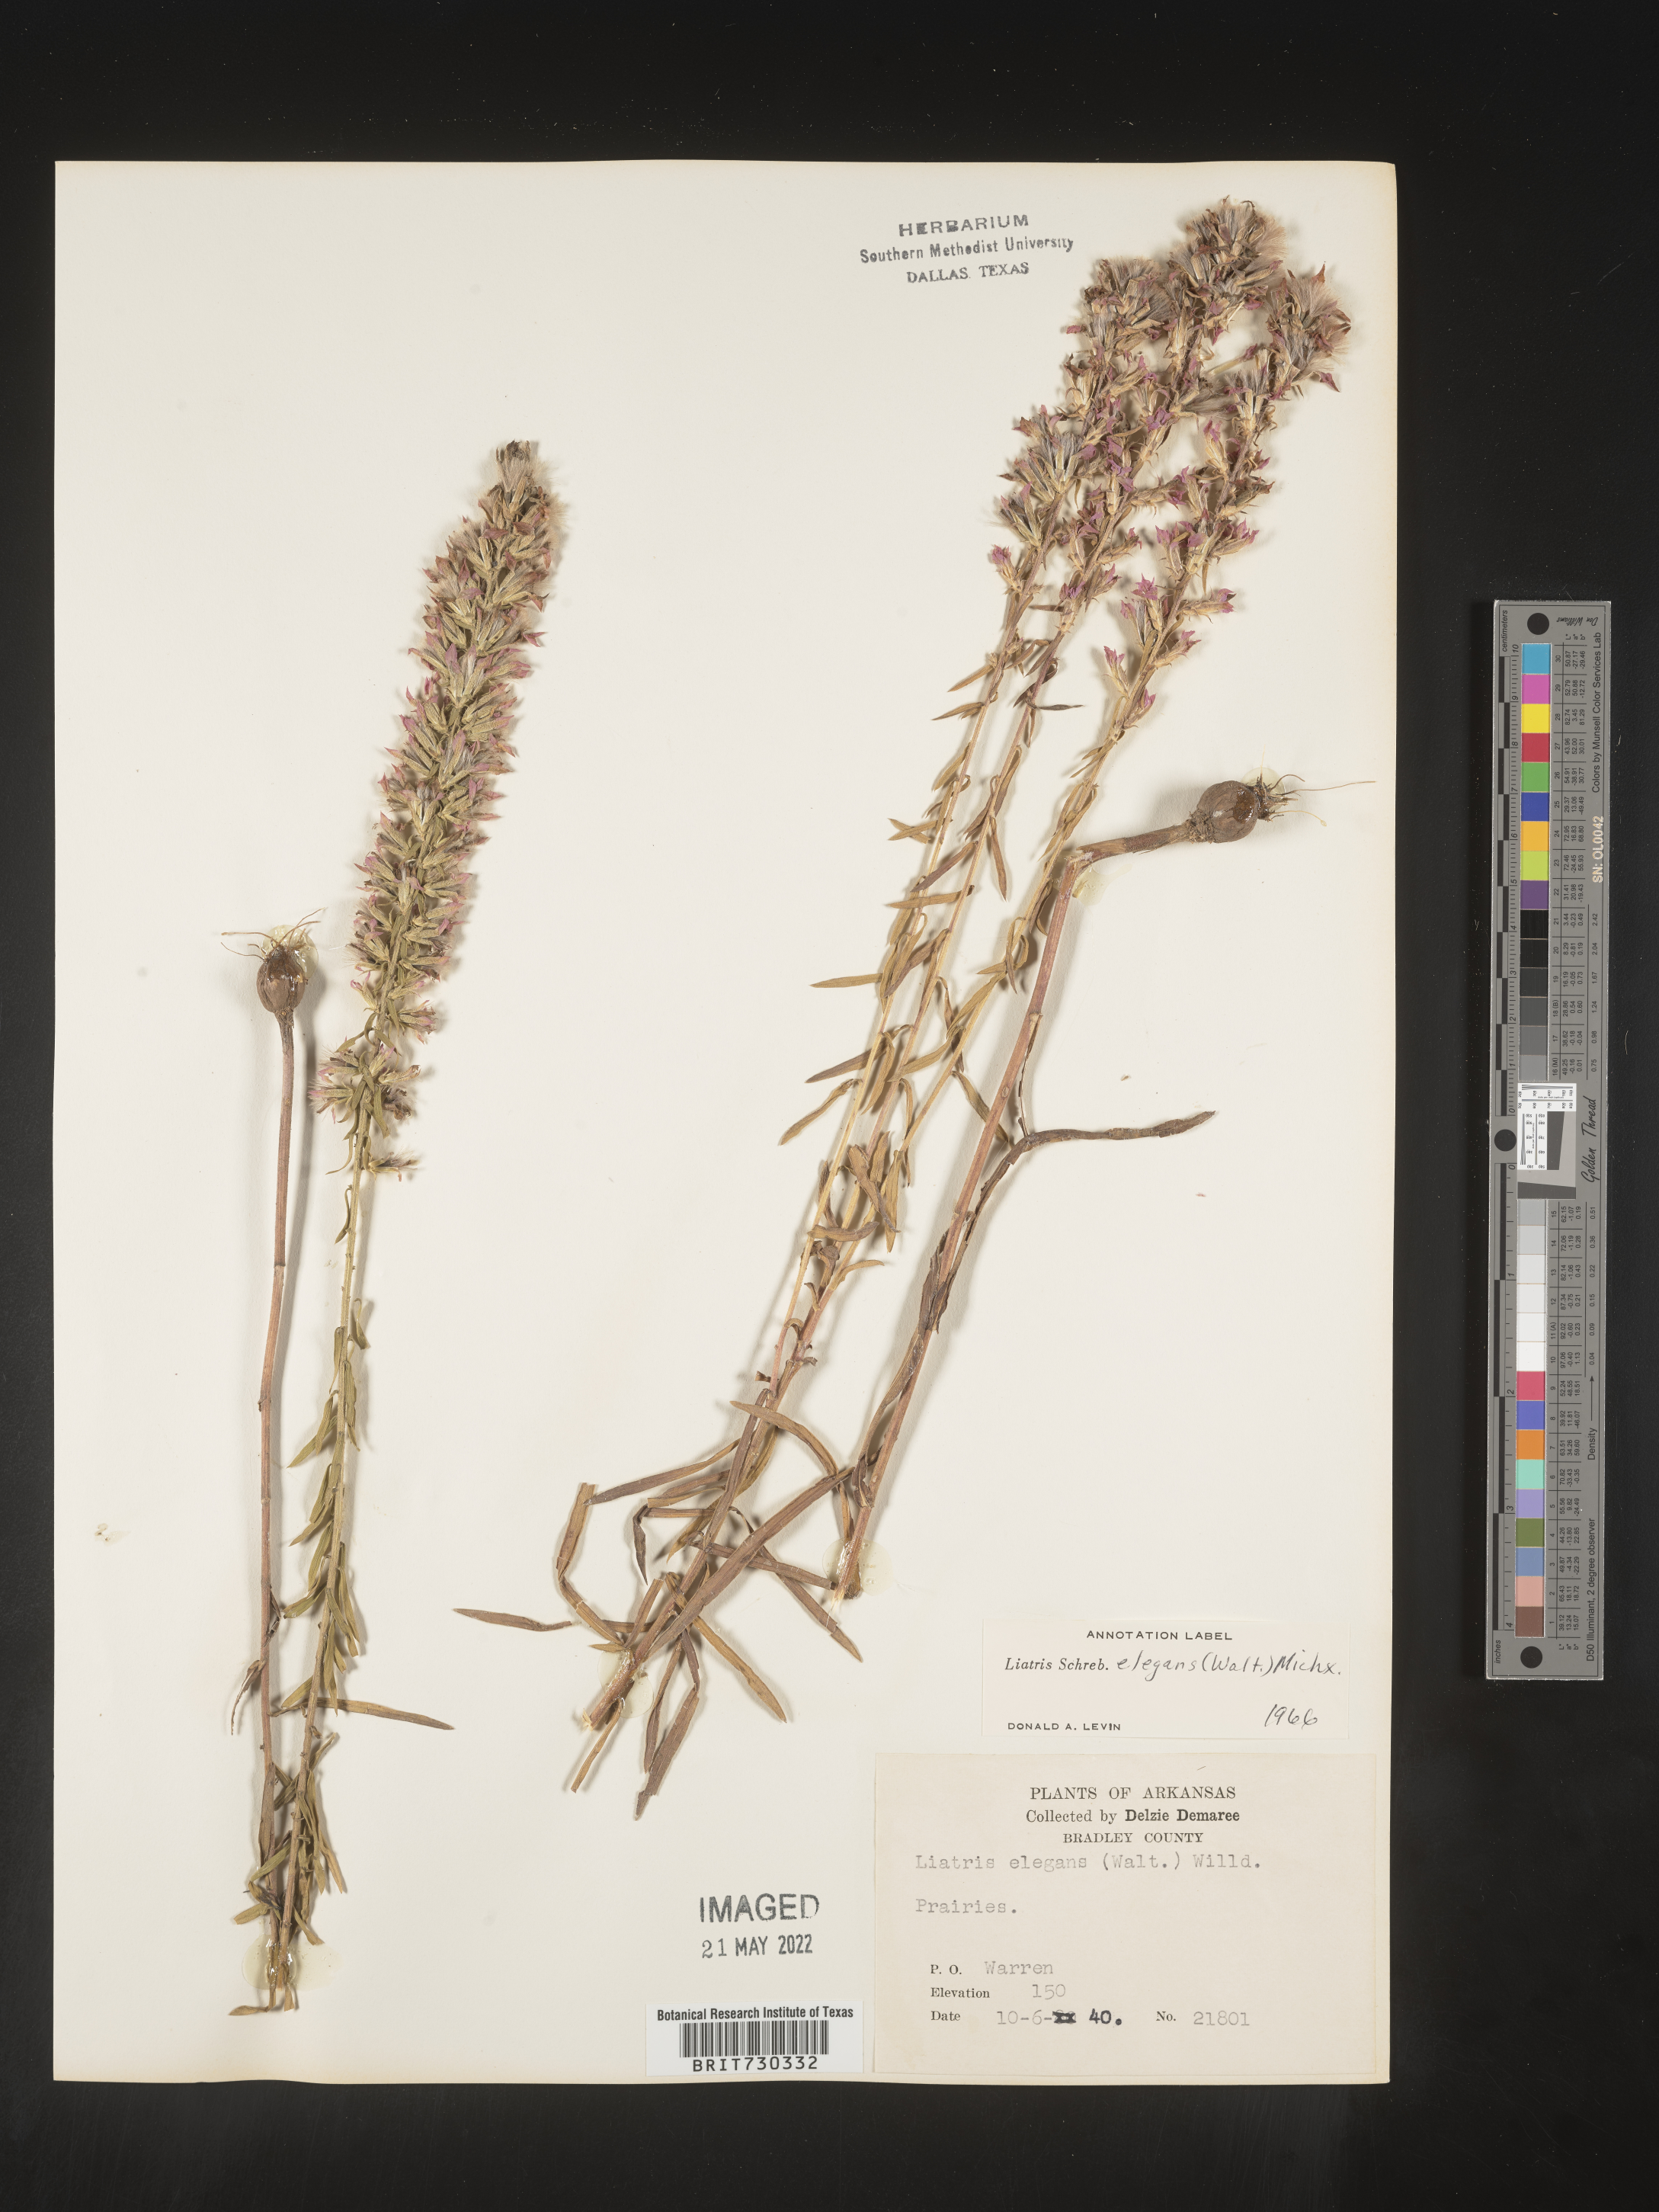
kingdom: Plantae
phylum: Tracheophyta
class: Magnoliopsida
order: Asterales
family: Asteraceae
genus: Liatris
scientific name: Liatris elegans
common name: Pinkscale gayfeather
